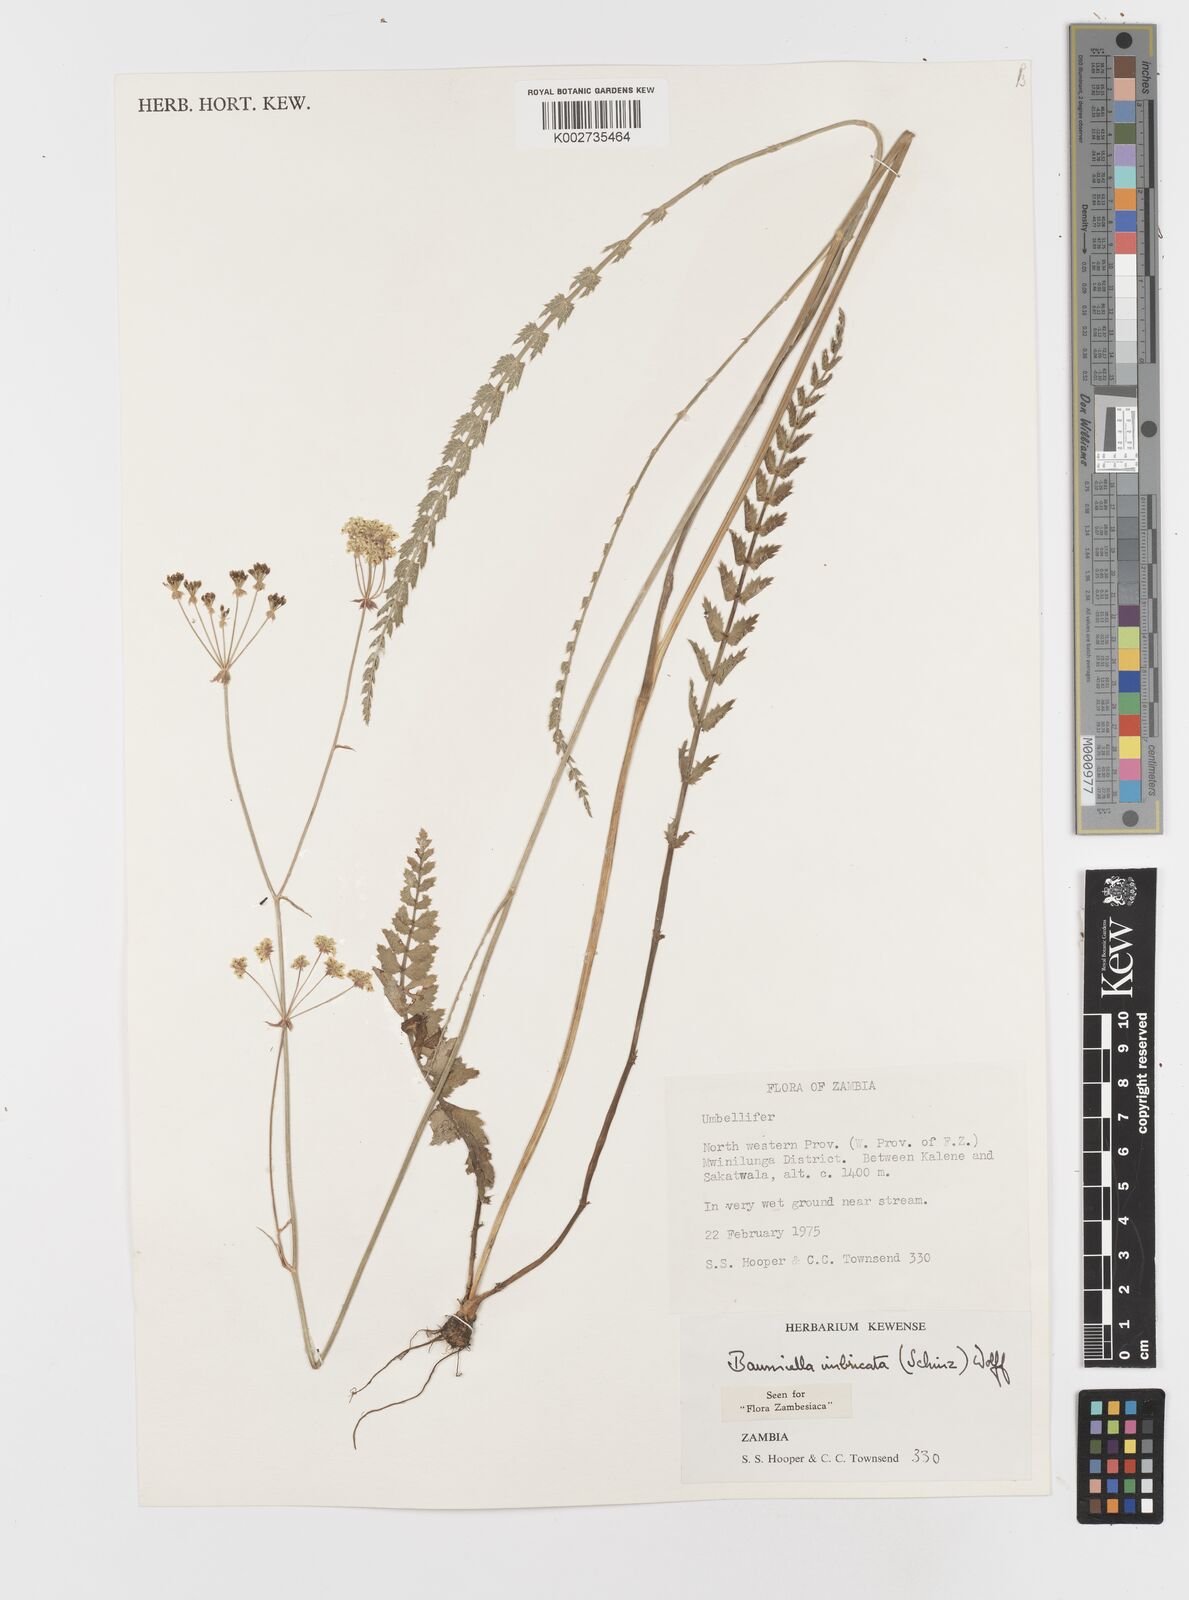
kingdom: Plantae
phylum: Tracheophyta
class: Magnoliopsida
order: Apiales
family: Apiaceae
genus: Berula
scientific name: Berula imbricata
